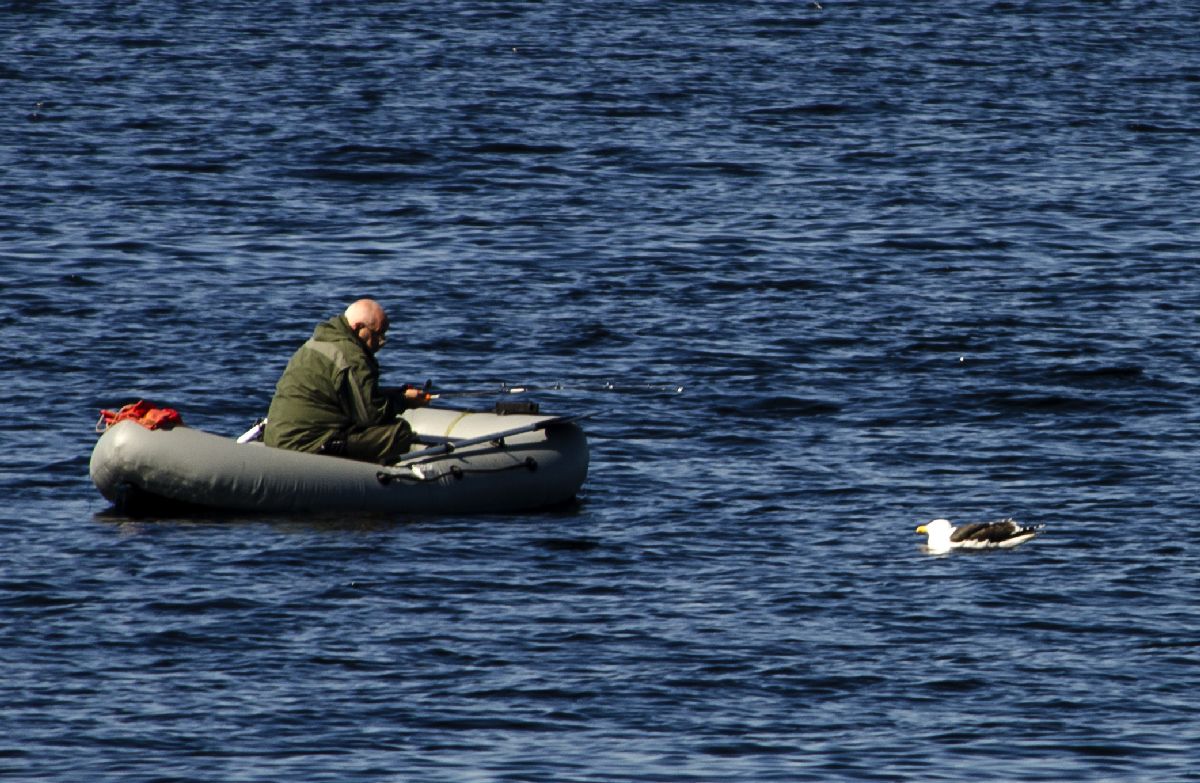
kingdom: Animalia
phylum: Chordata
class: Aves
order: Charadriiformes
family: Laridae
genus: Larus
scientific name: Larus marinus
